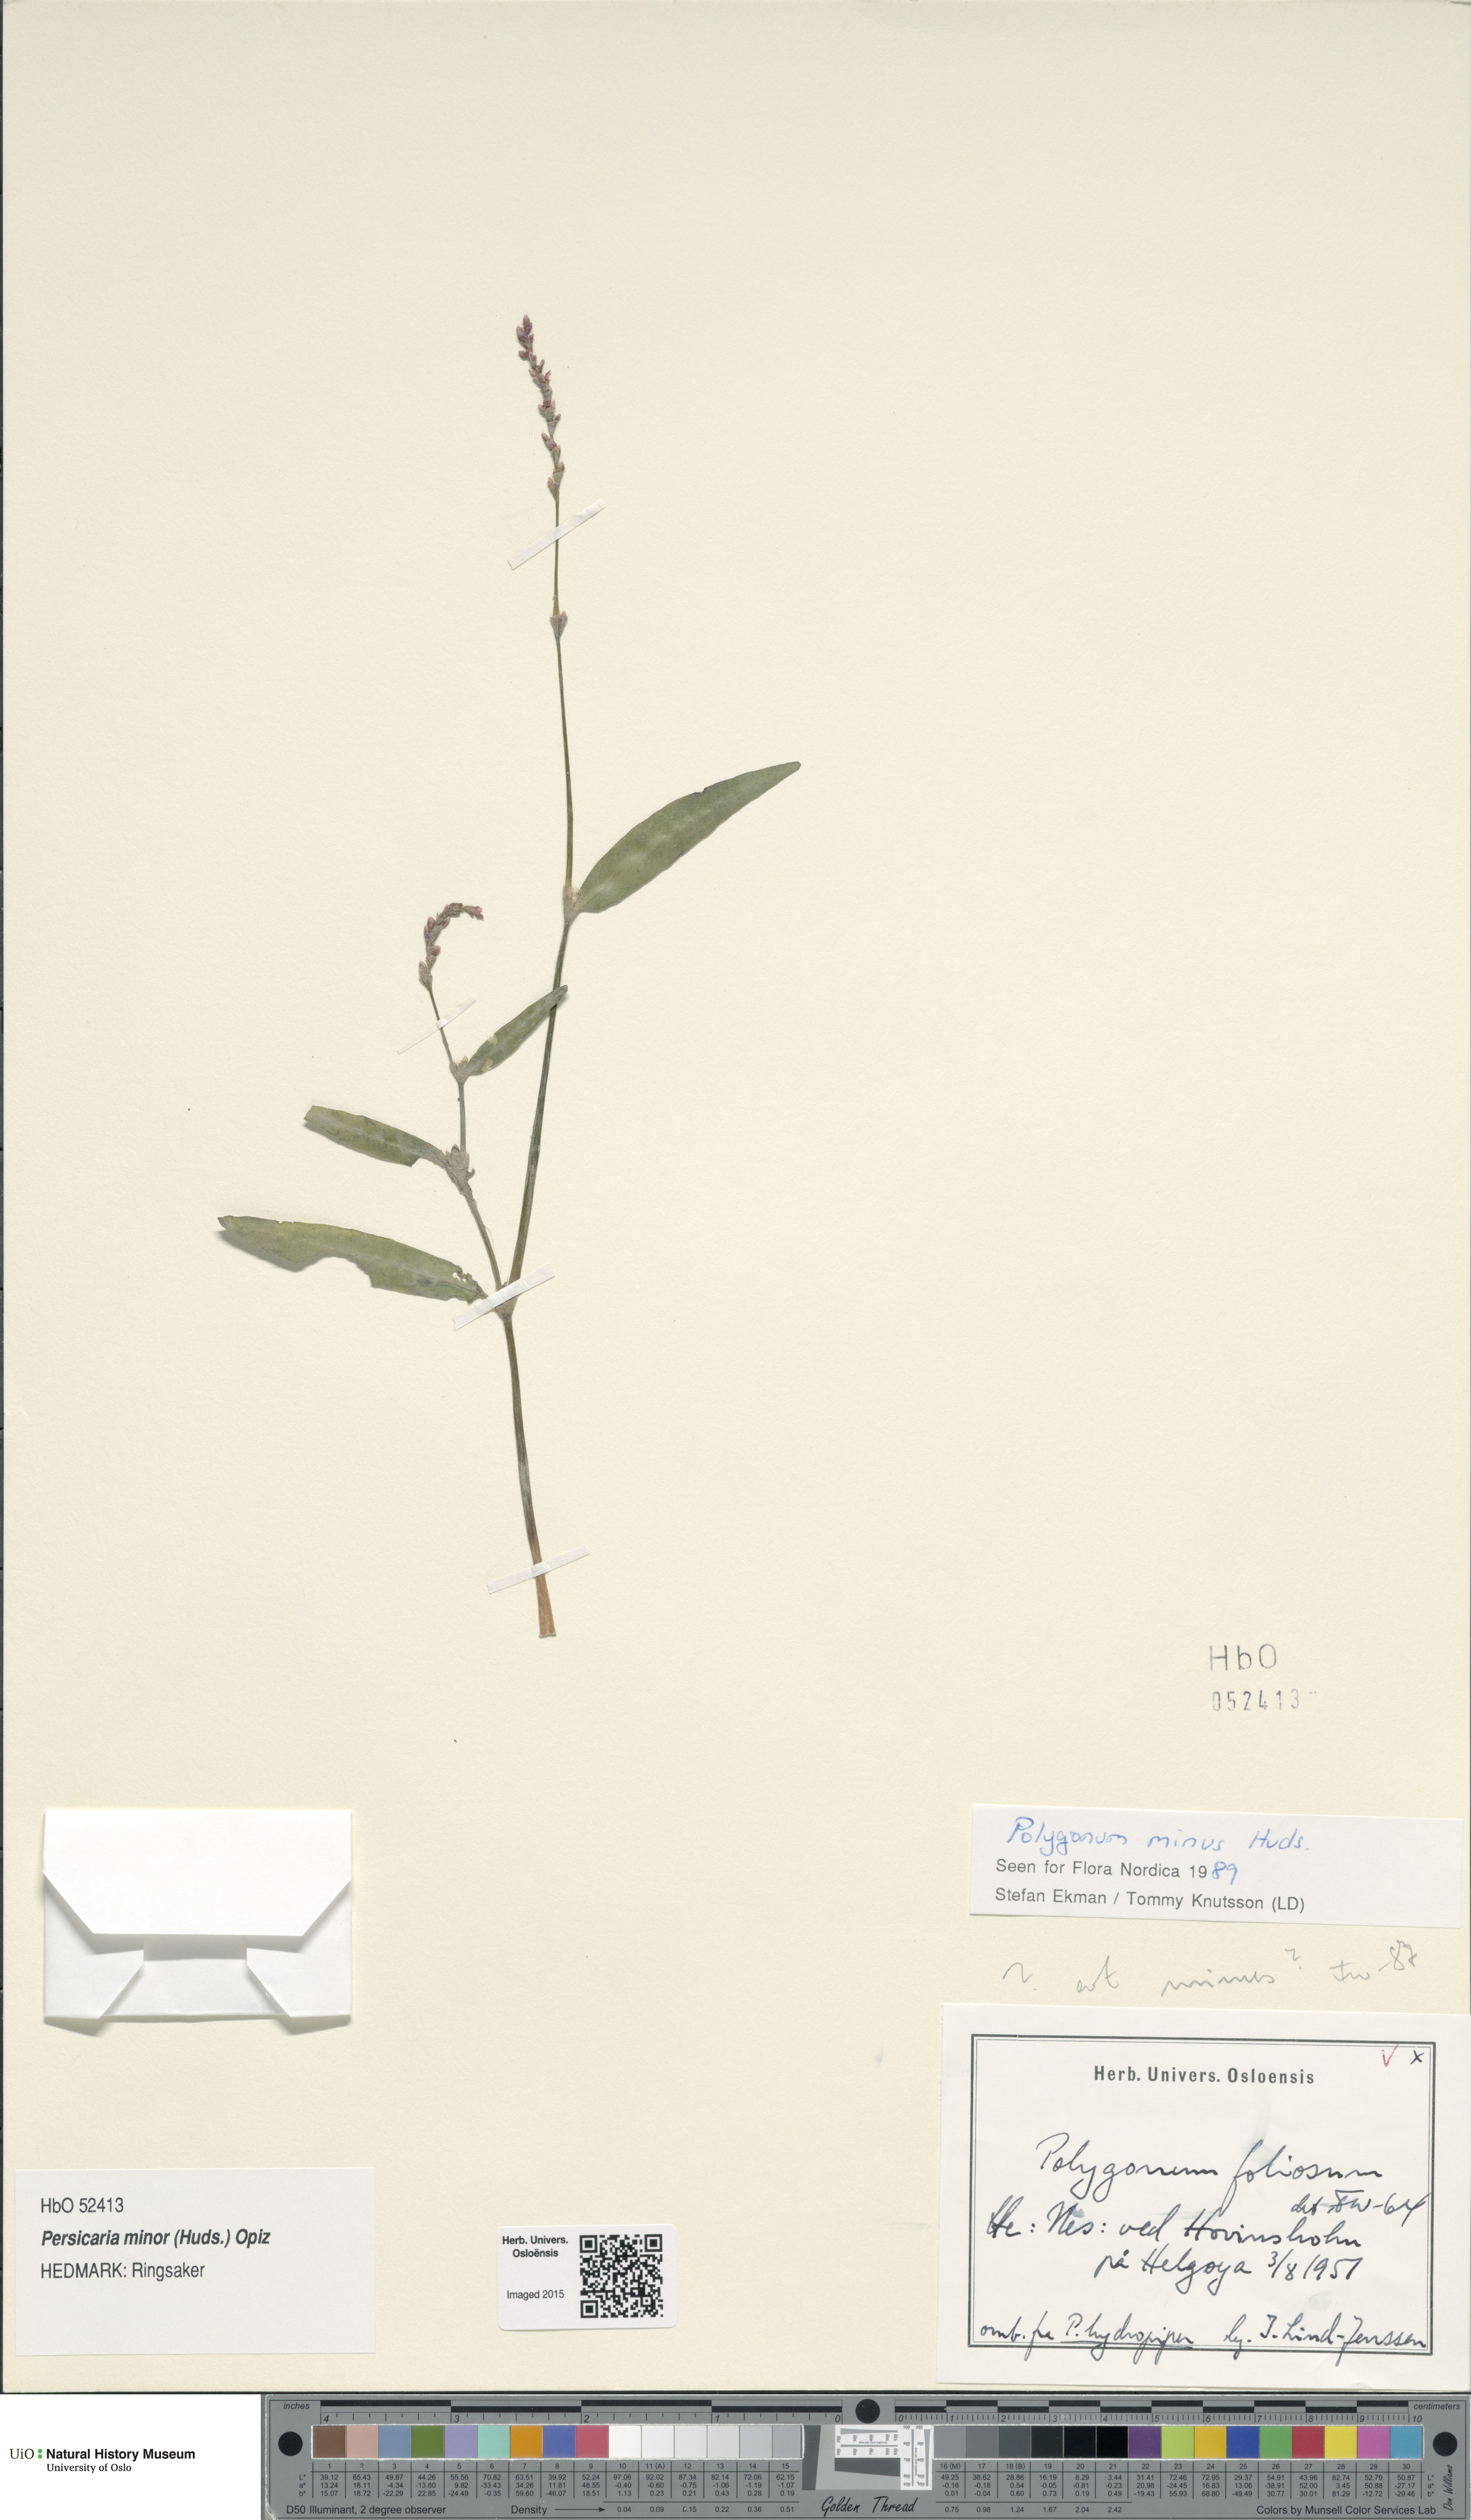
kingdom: Plantae
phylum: Tracheophyta
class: Magnoliopsida
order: Caryophyllales
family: Polygonaceae
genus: Persicaria
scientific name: Persicaria minor
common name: Small water-pepper
